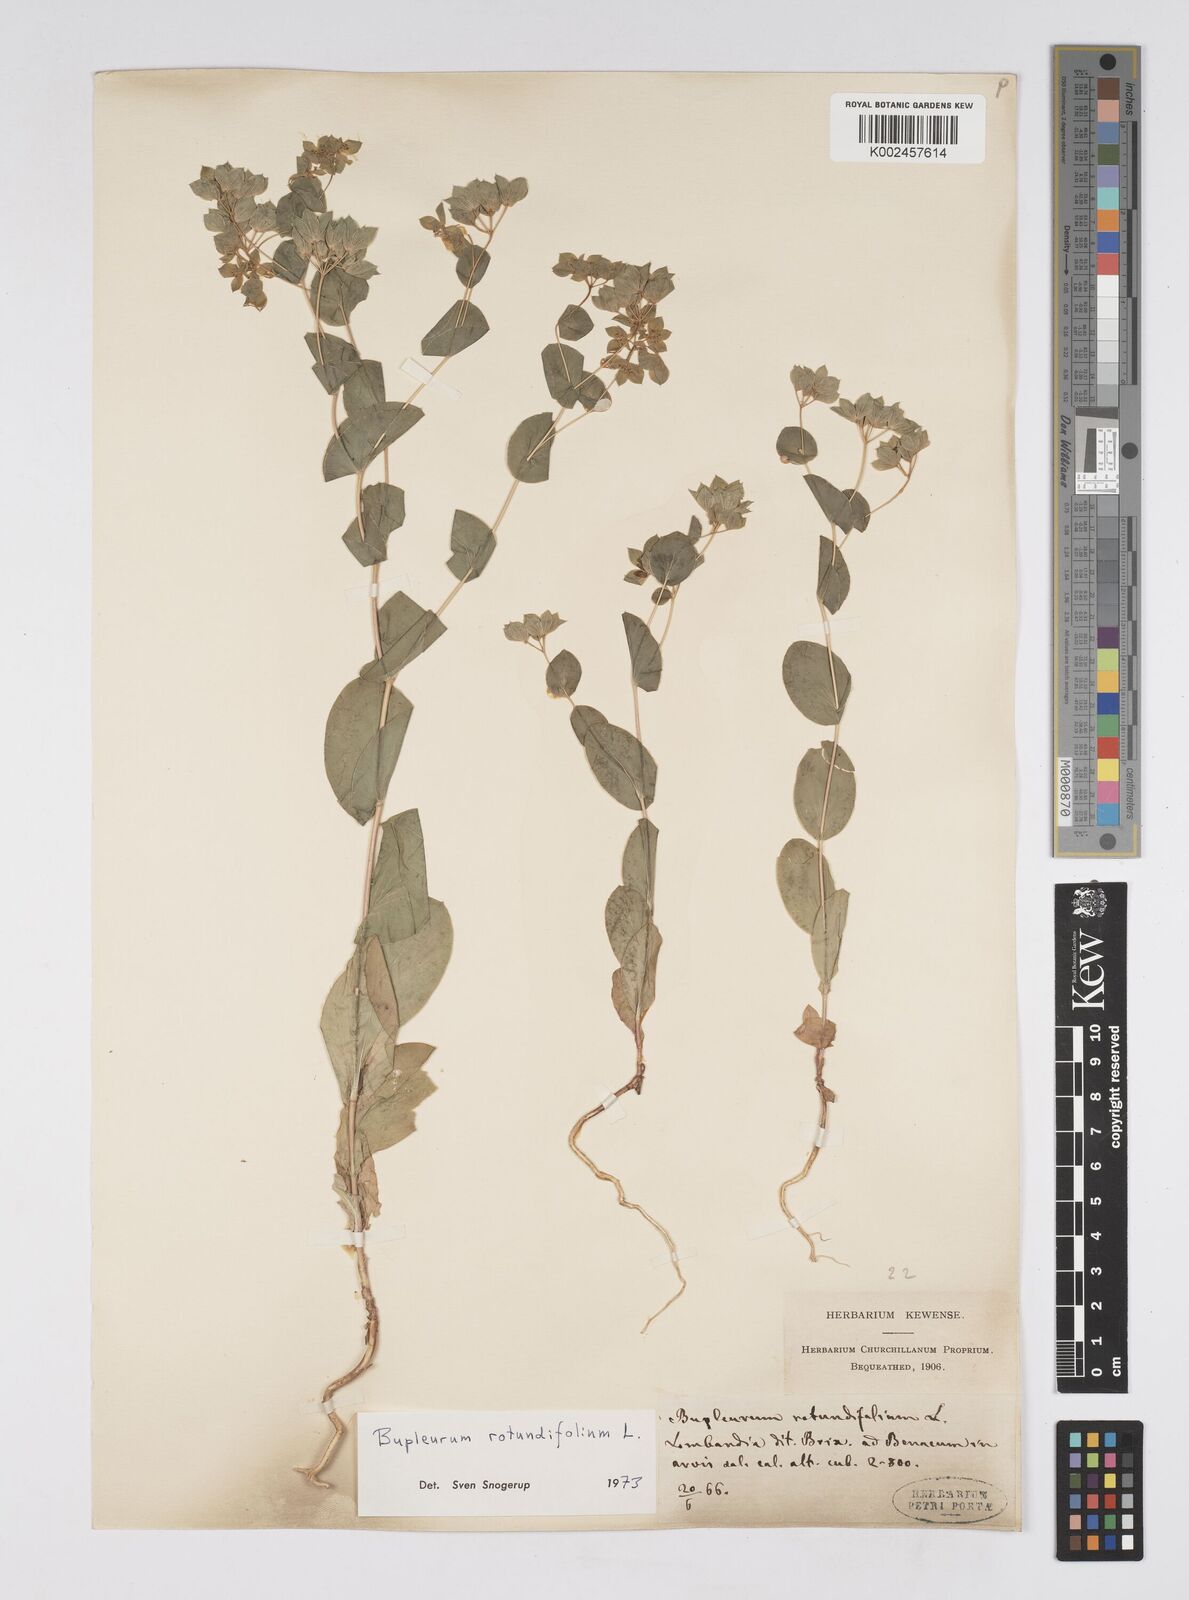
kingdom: Plantae
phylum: Tracheophyta
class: Magnoliopsida
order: Apiales
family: Apiaceae
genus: Bupleurum
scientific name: Bupleurum rotundifolium
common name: Thorow-wax
